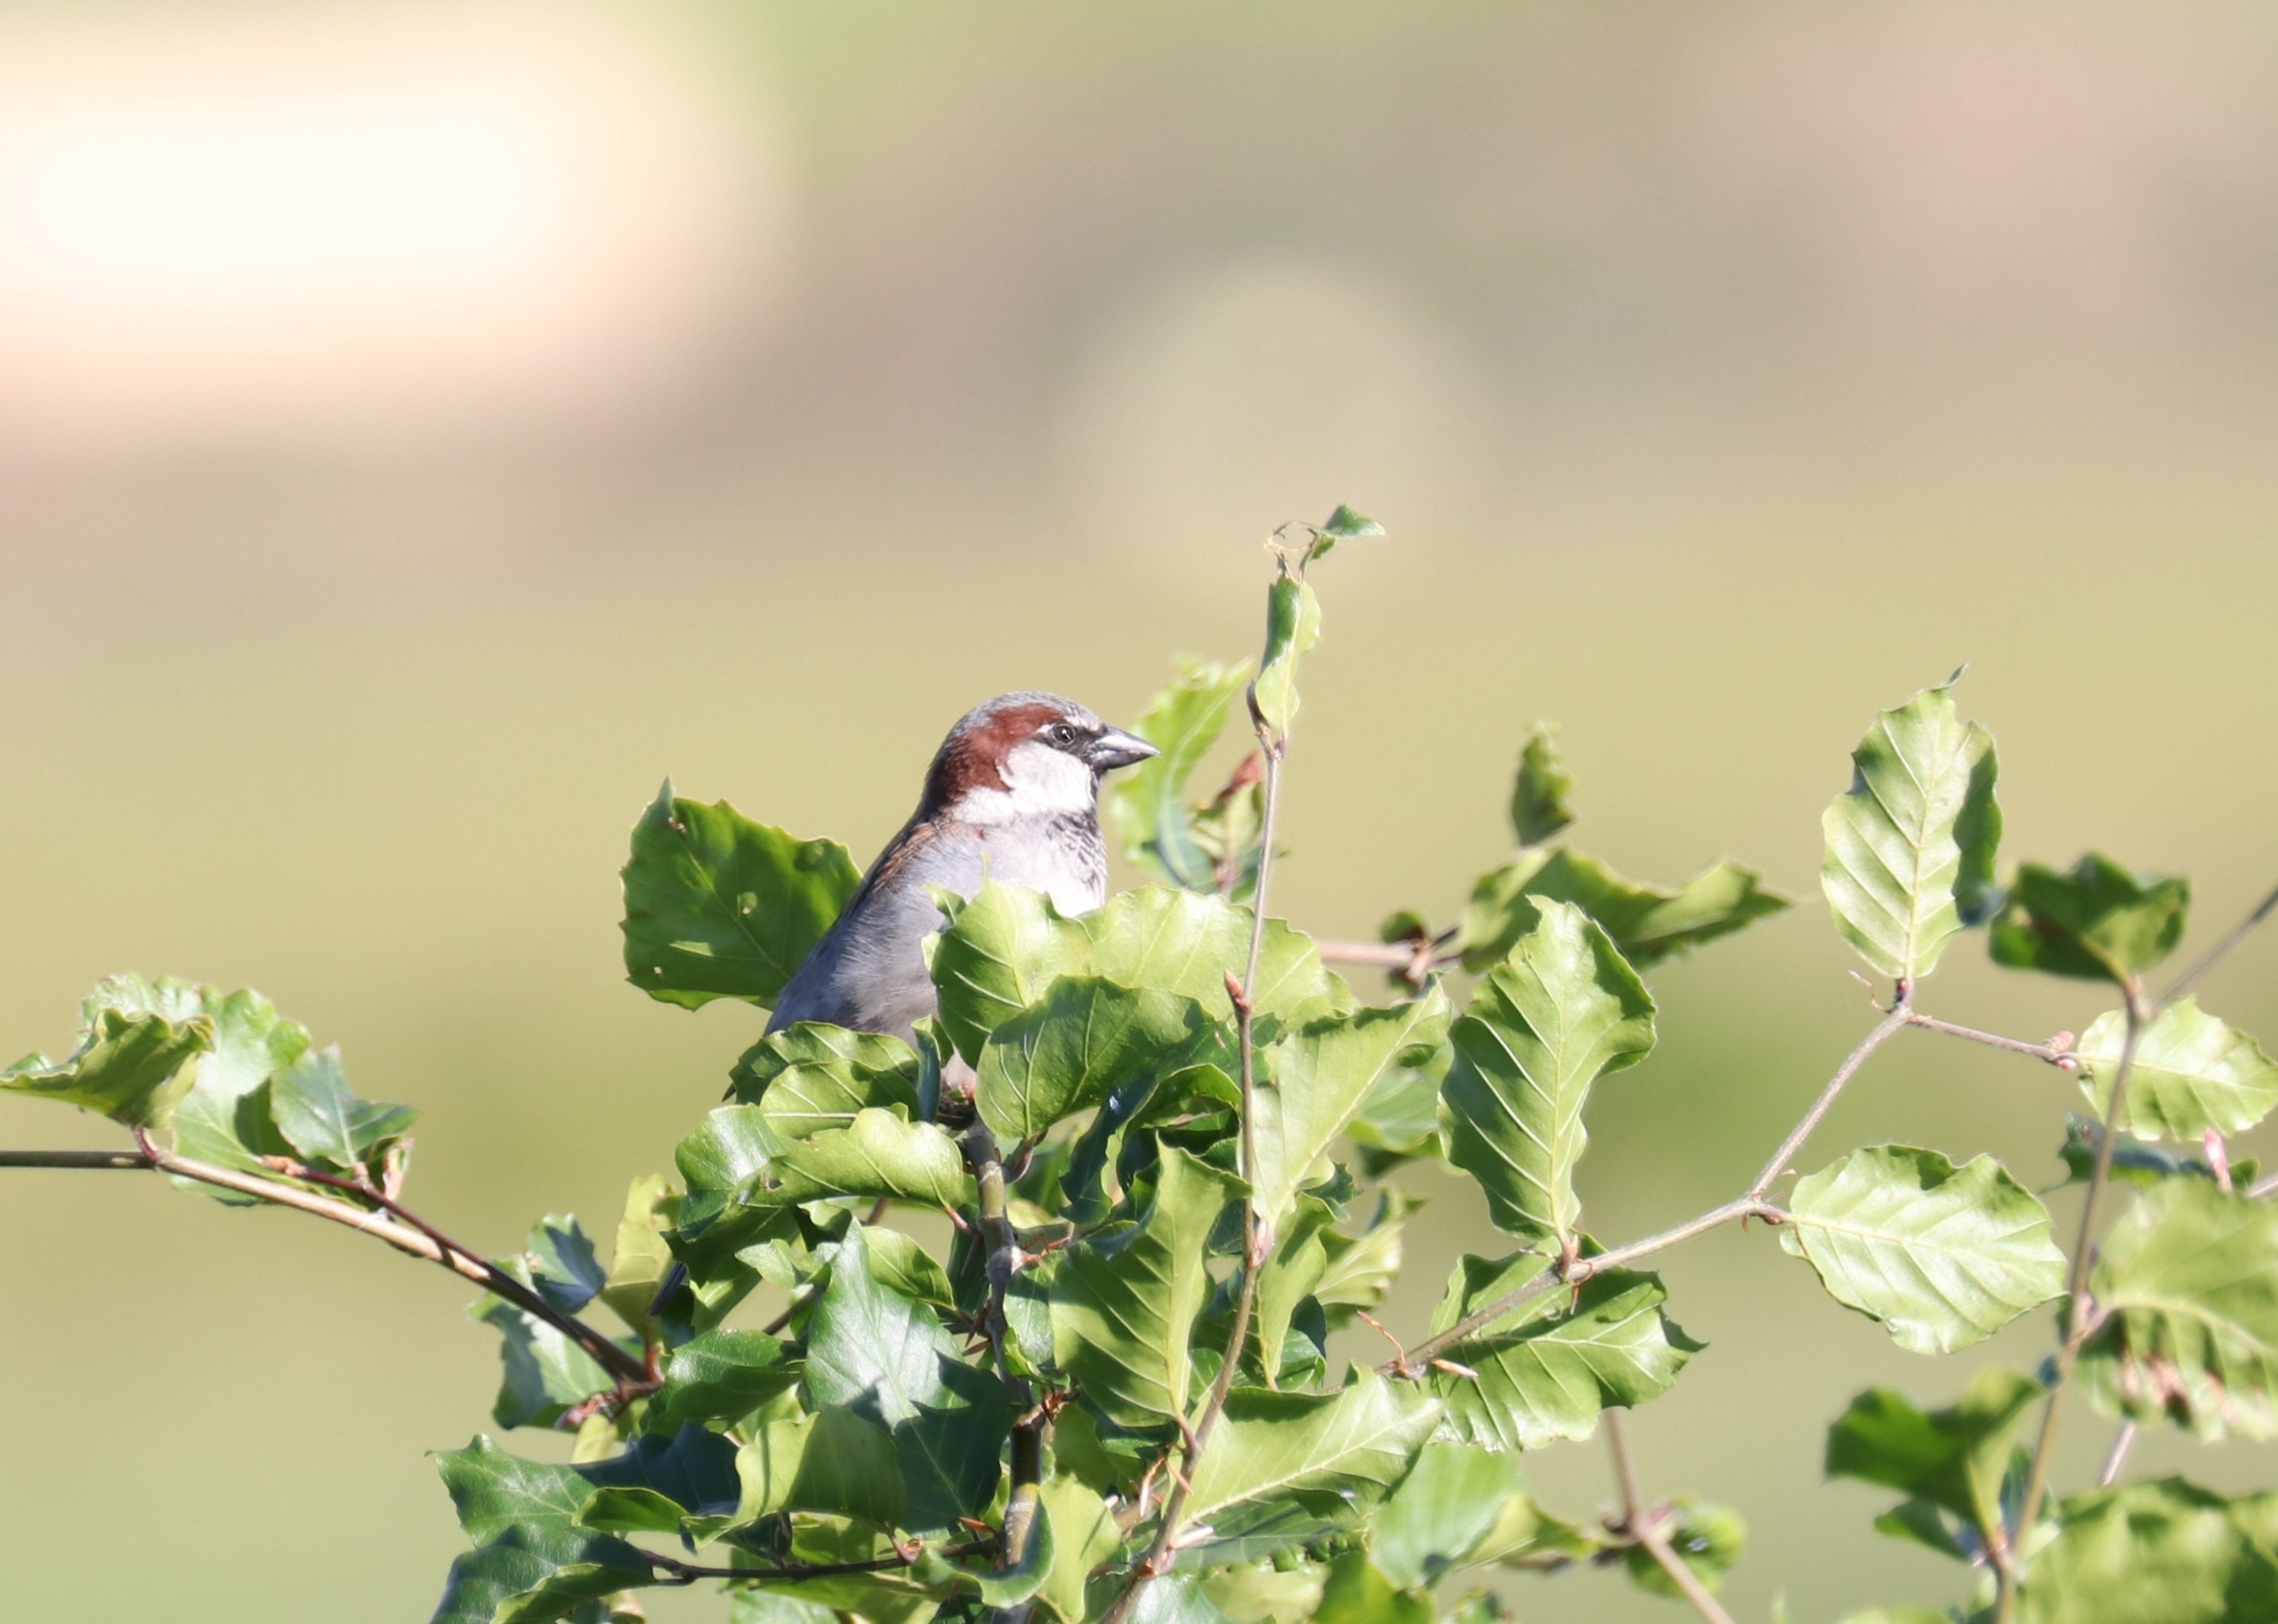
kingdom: Animalia
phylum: Chordata
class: Aves
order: Passeriformes
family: Passeridae
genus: Passer
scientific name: Passer domesticus
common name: Gråspurv
